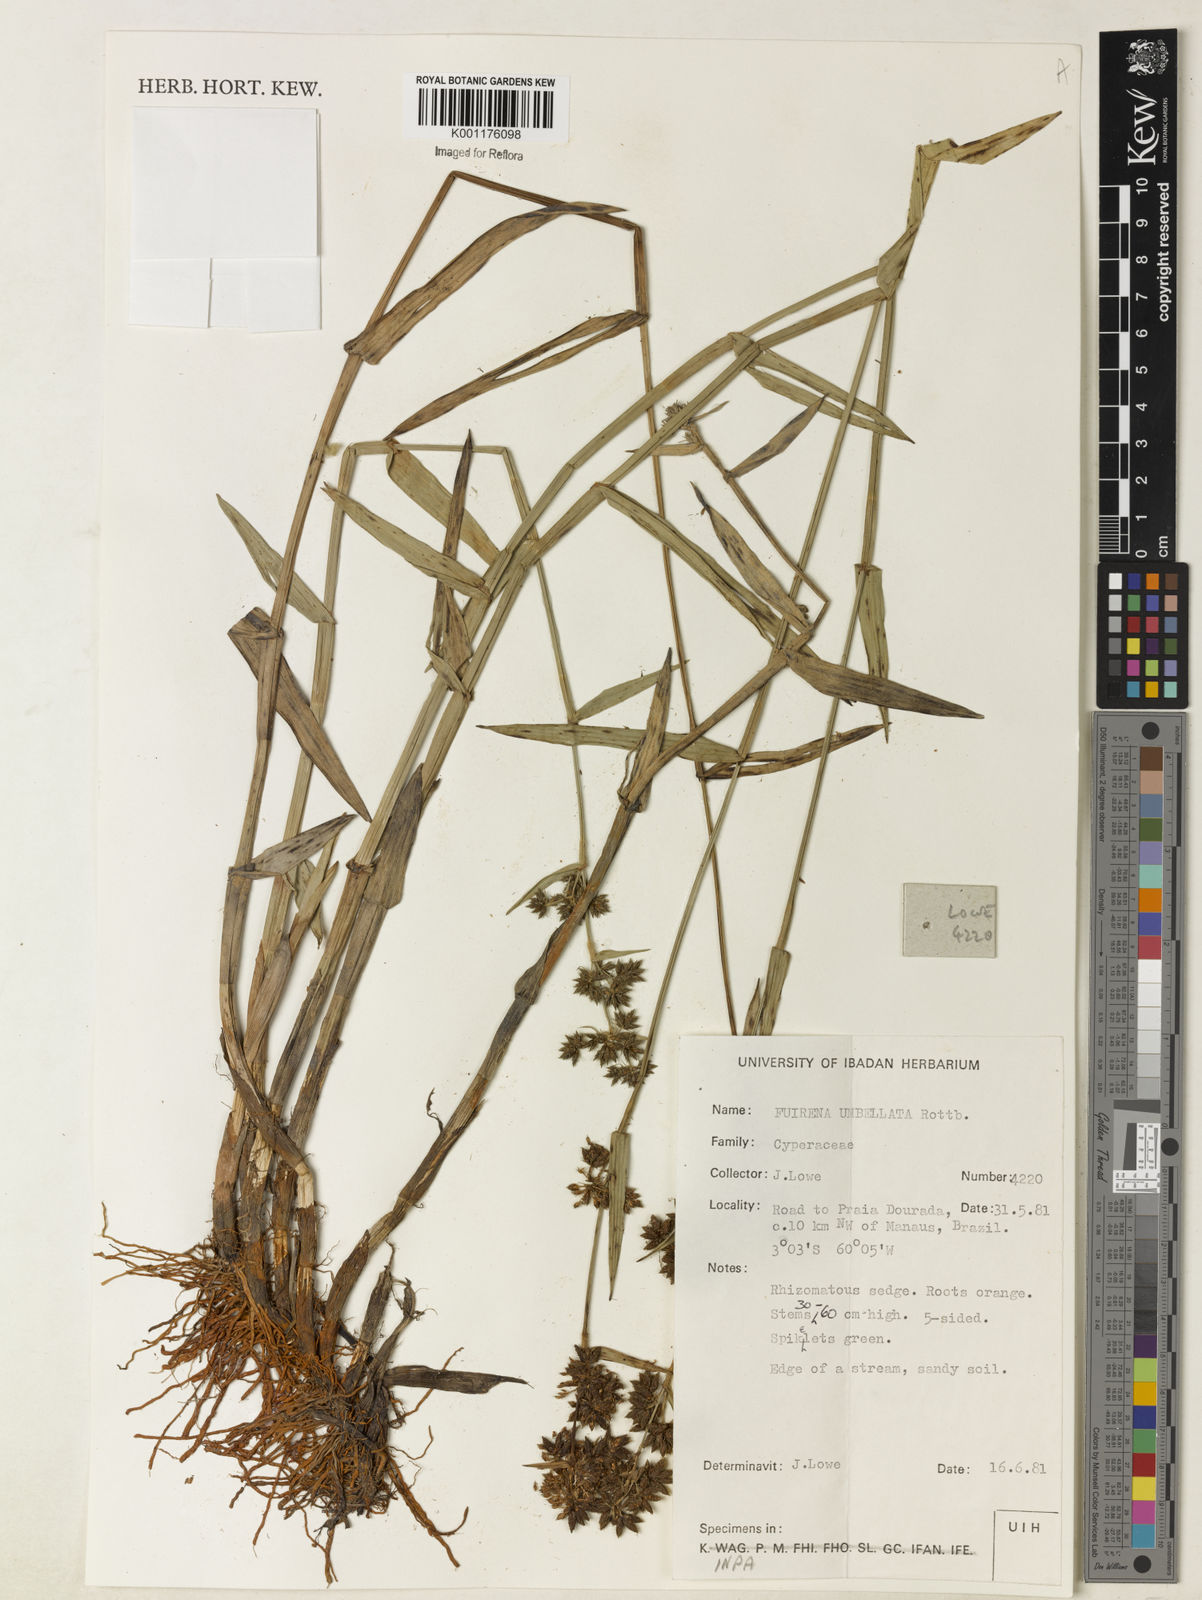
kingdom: Plantae
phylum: Tracheophyta
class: Liliopsida
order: Poales
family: Cyperaceae
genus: Fuirena
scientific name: Fuirena umbellata
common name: Yefen
